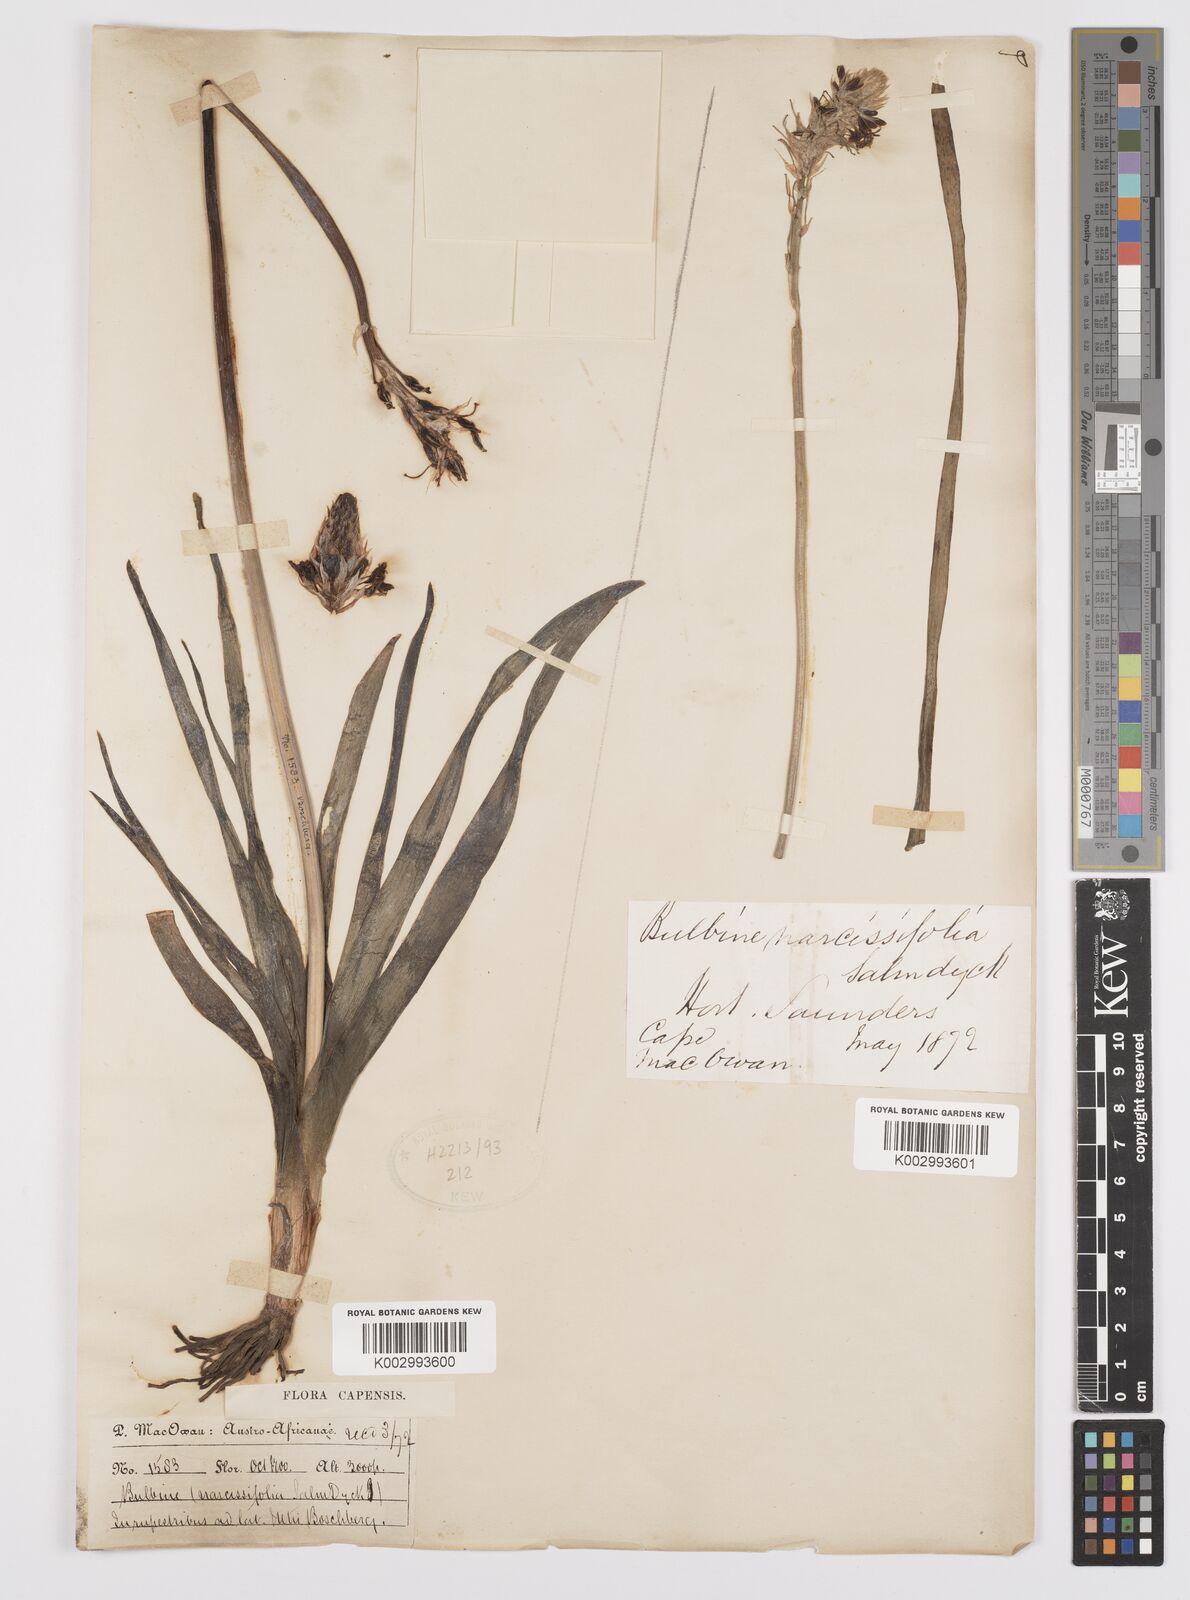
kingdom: Plantae
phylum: Tracheophyta
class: Liliopsida
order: Asparagales
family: Asphodelaceae
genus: Bulbine
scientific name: Bulbine narcissifolia
